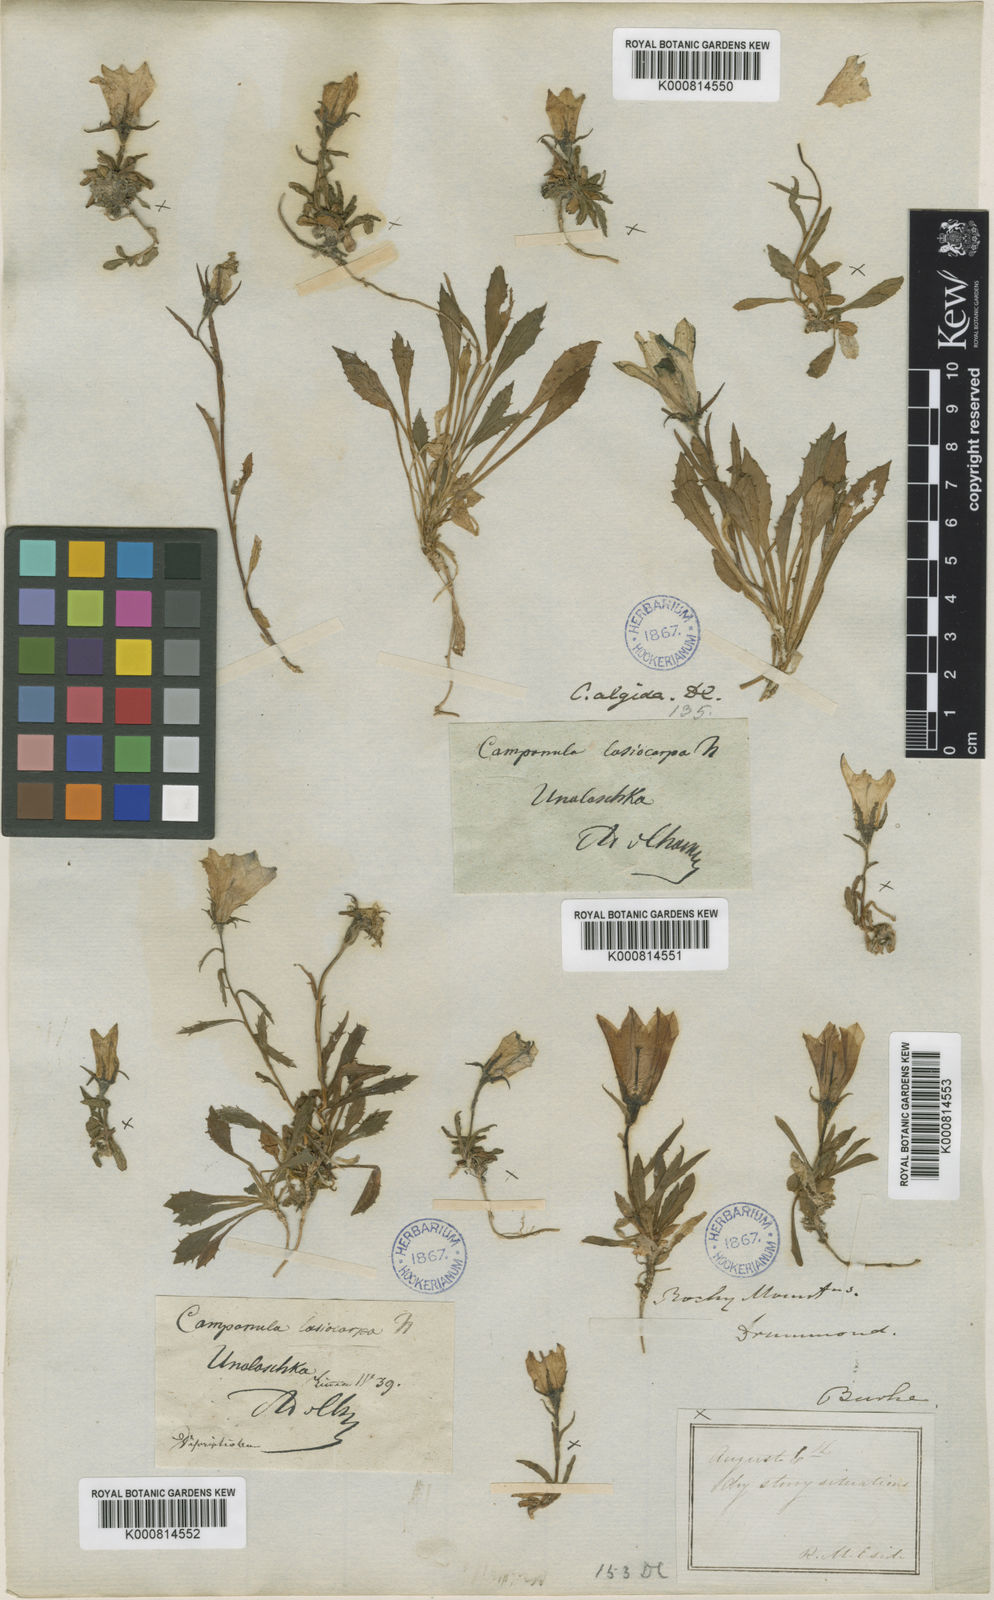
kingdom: Plantae
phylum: Tracheophyta
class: Magnoliopsida
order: Asterales
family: Campanulaceae
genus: Campanula
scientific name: Campanula lasiocarpa
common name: Mountain harebell
